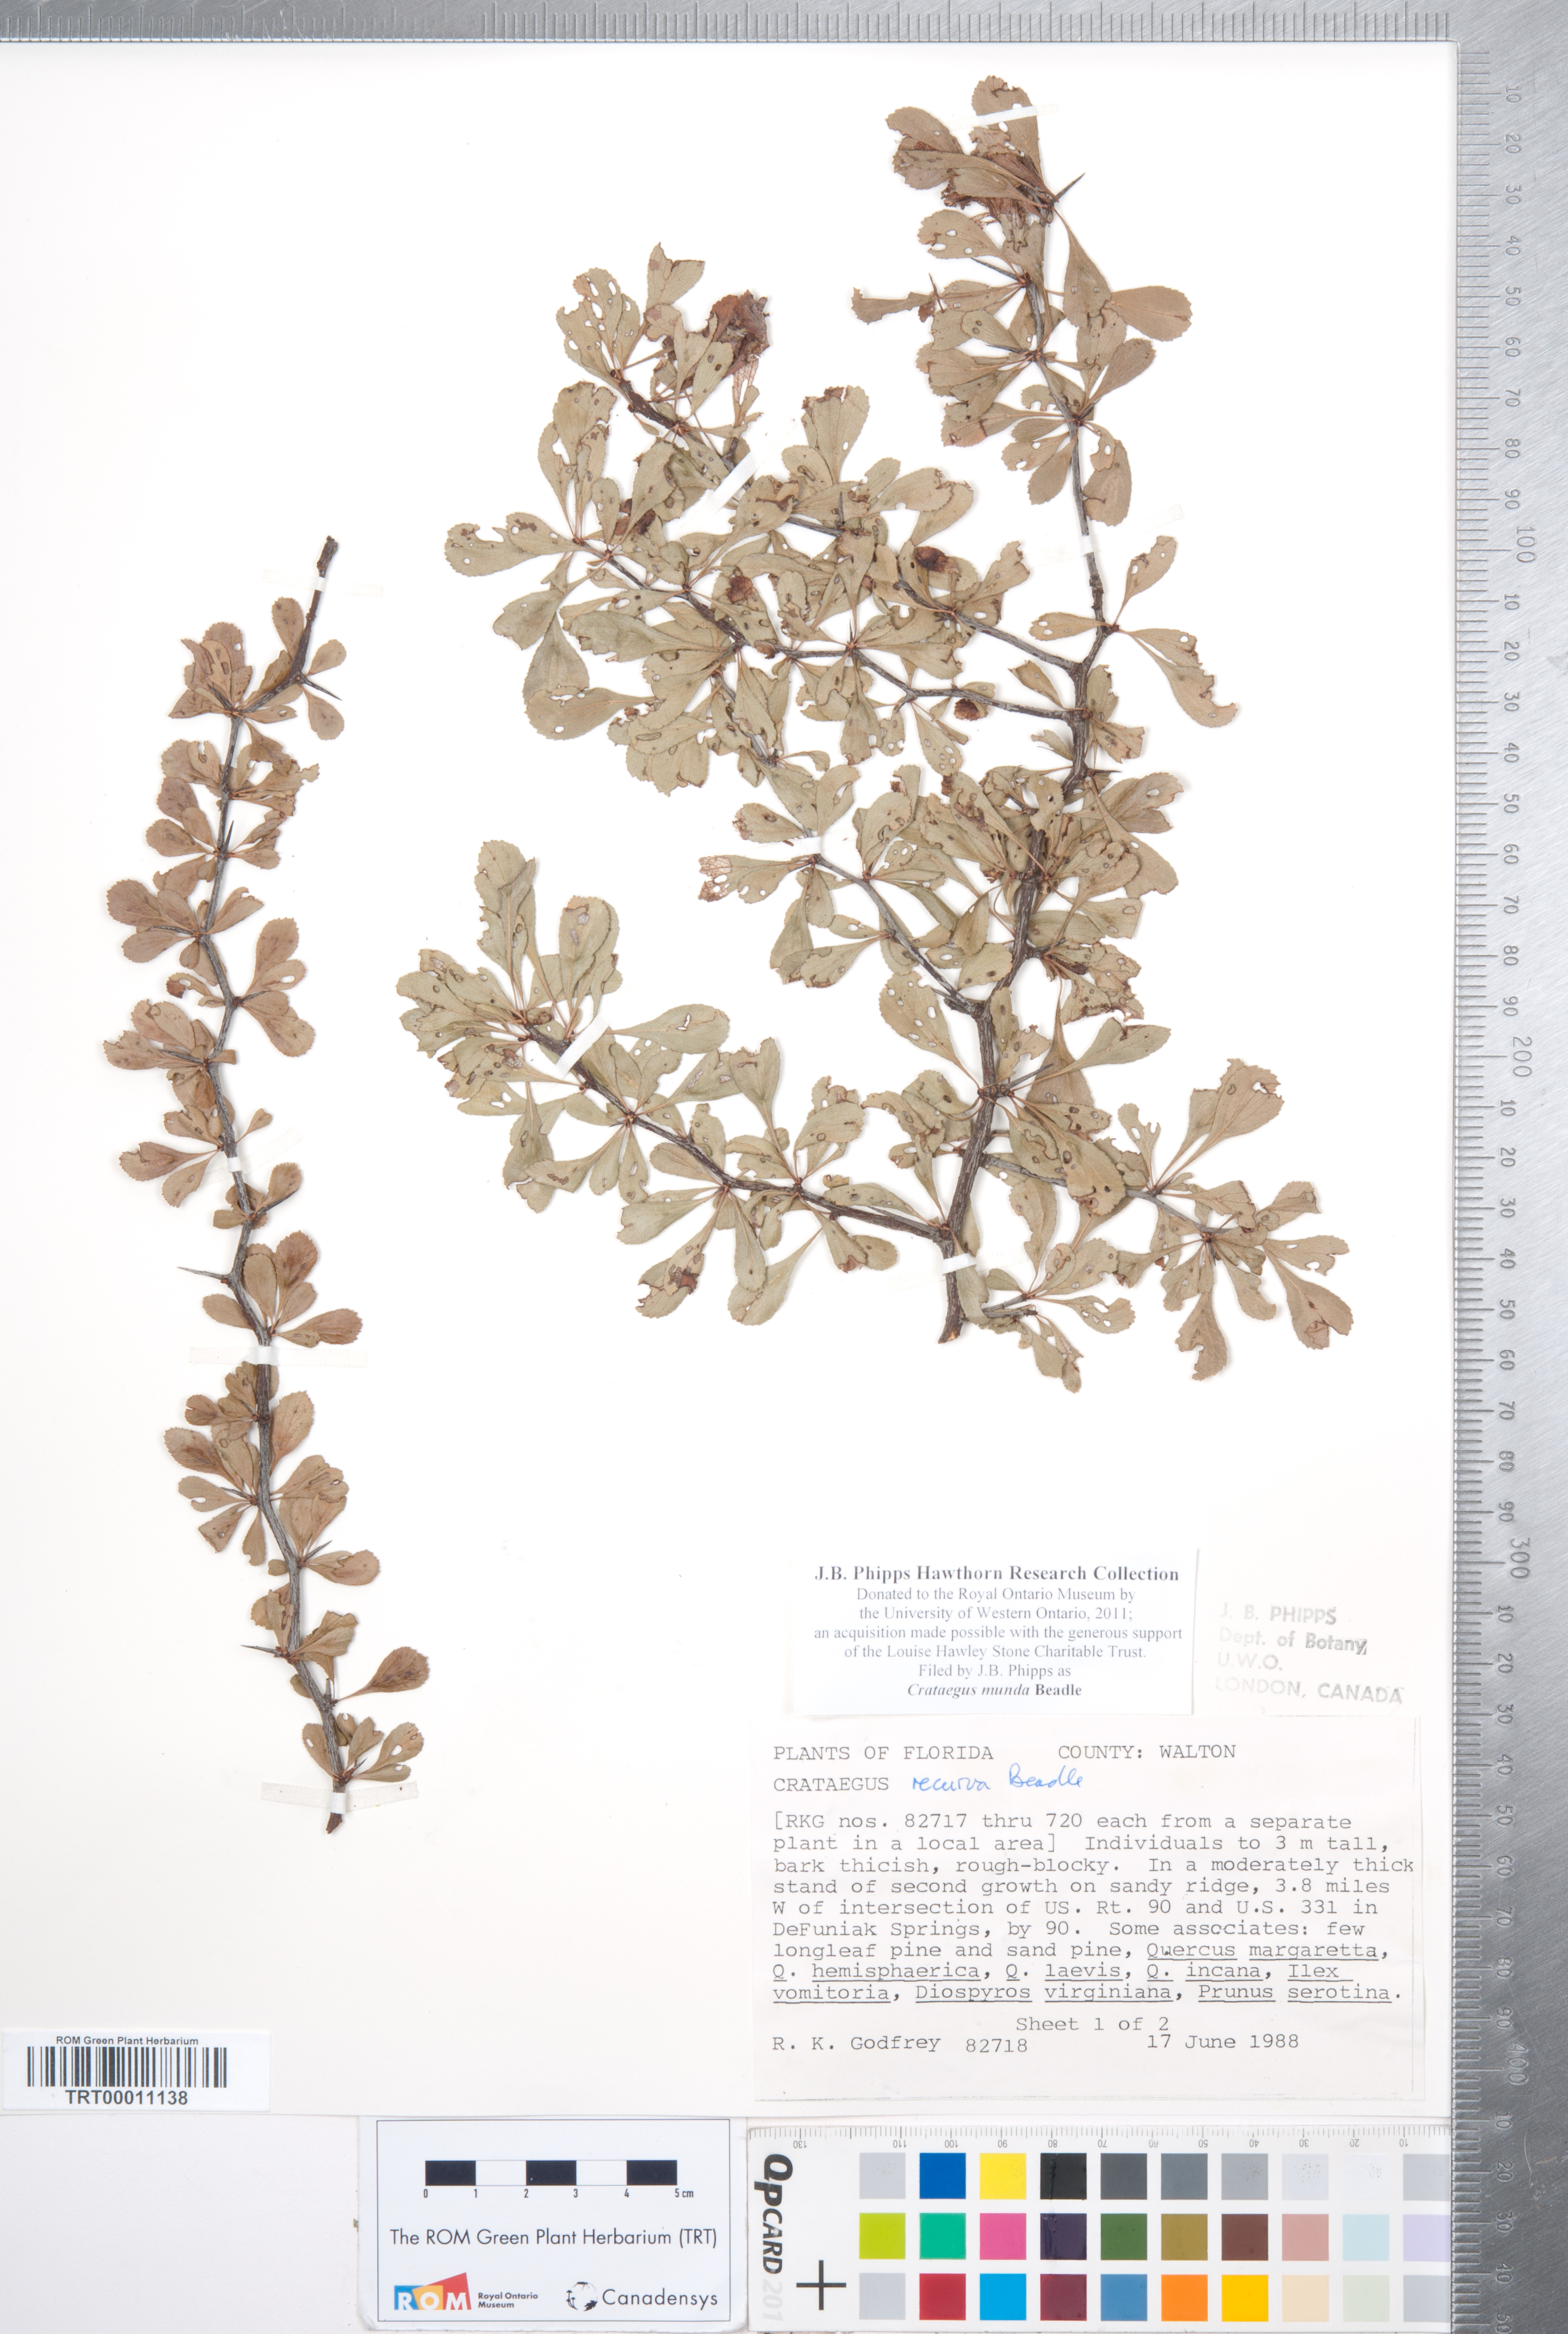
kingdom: Plantae
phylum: Tracheophyta
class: Magnoliopsida
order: Rosales
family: Rosaceae
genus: Crataegus
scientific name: Crataegus munda
